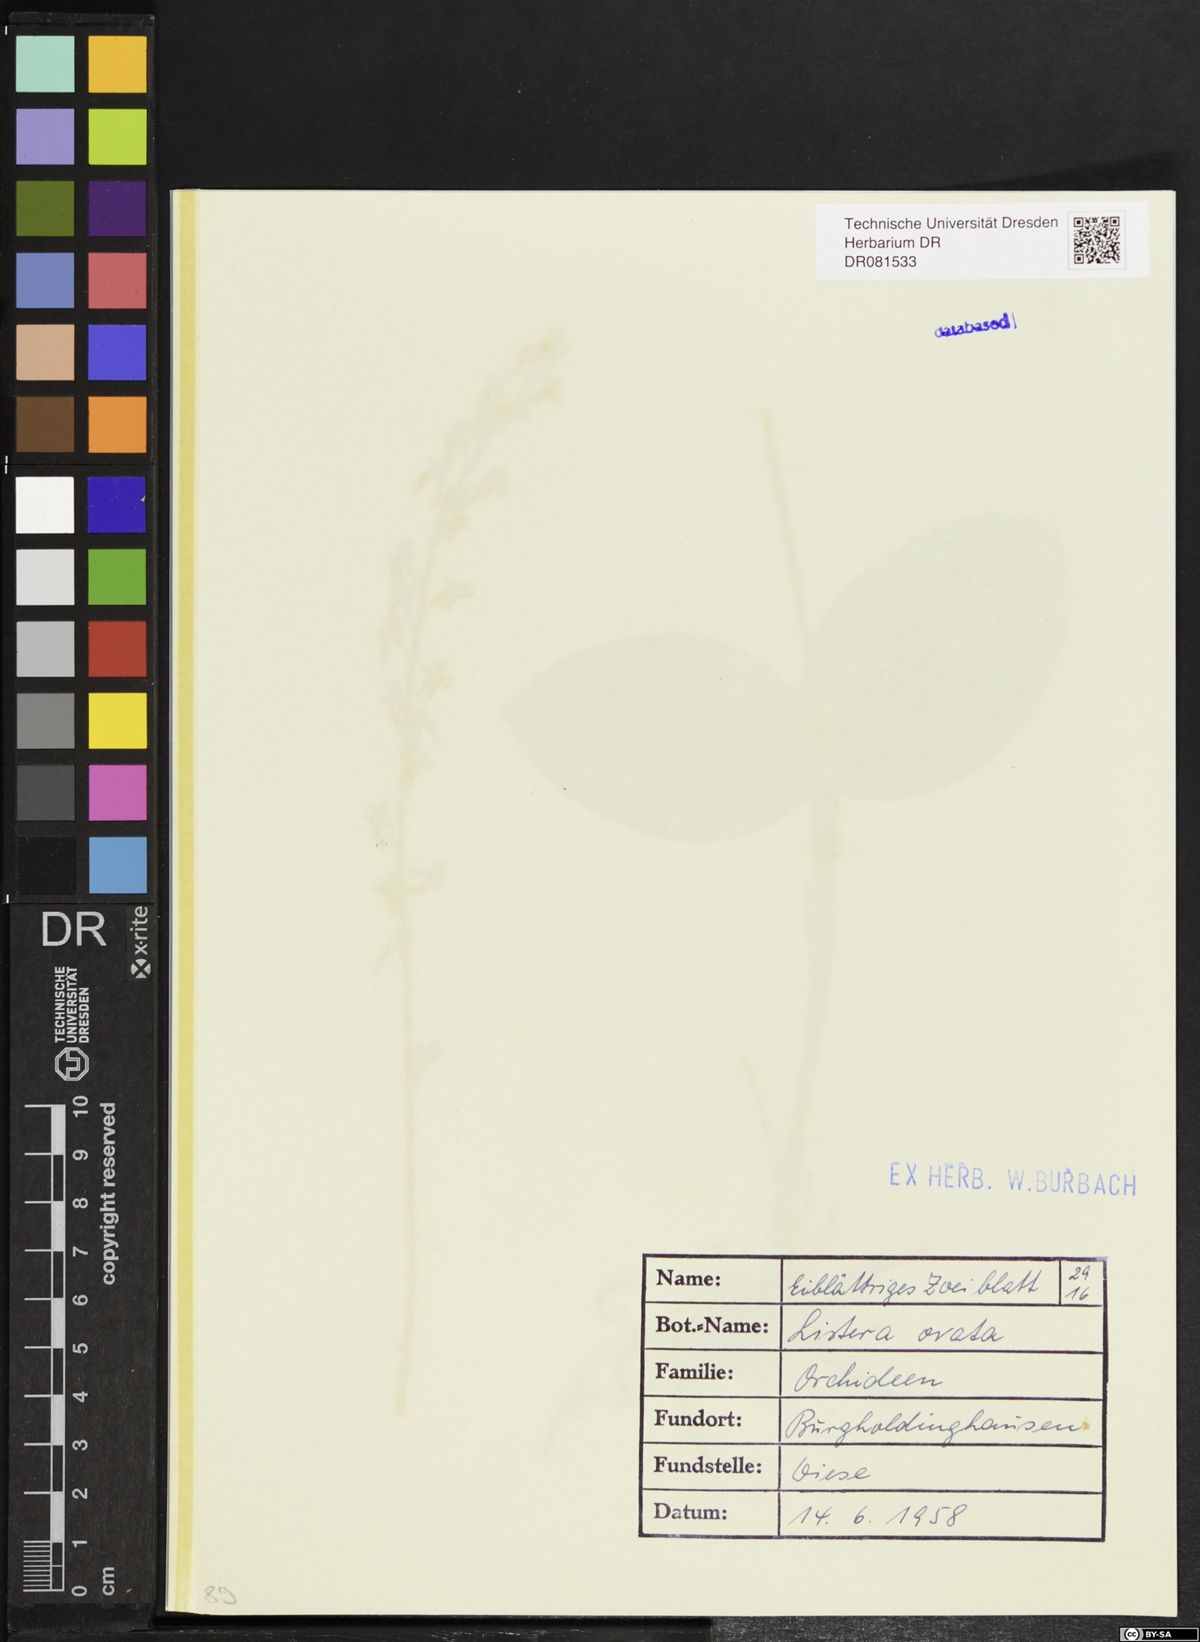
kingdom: Plantae
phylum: Tracheophyta
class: Liliopsida
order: Asparagales
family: Orchidaceae
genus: Neottia
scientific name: Neottia ovata
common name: Common twayblade
